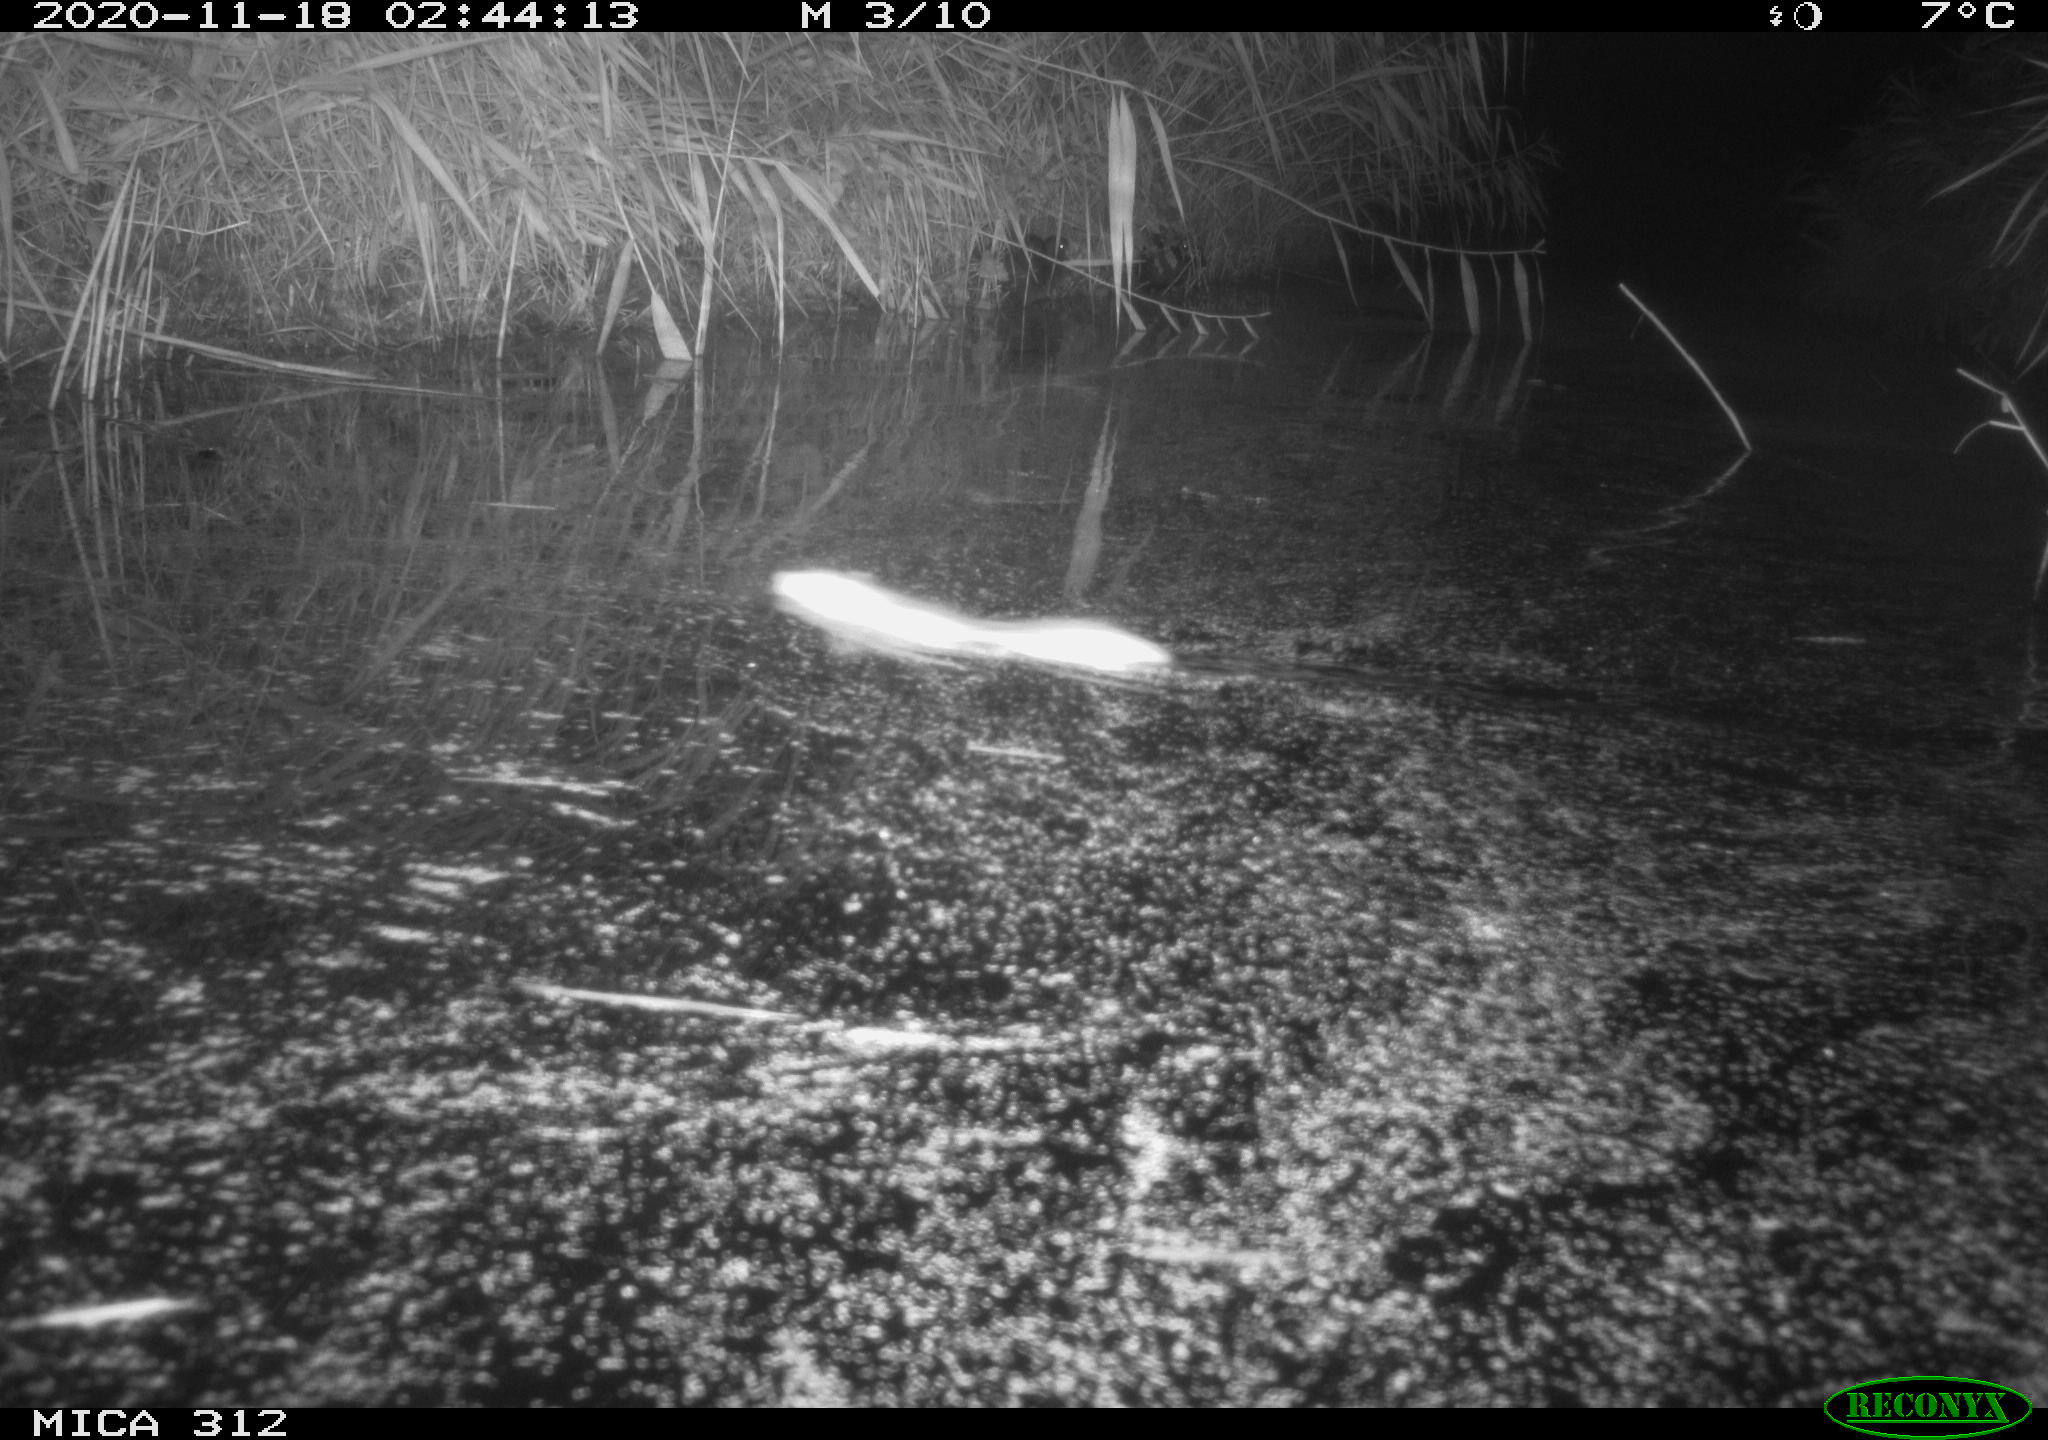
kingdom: Animalia
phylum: Chordata
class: Mammalia
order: Rodentia
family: Muridae
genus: Rattus
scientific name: Rattus norvegicus
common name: Brown rat
